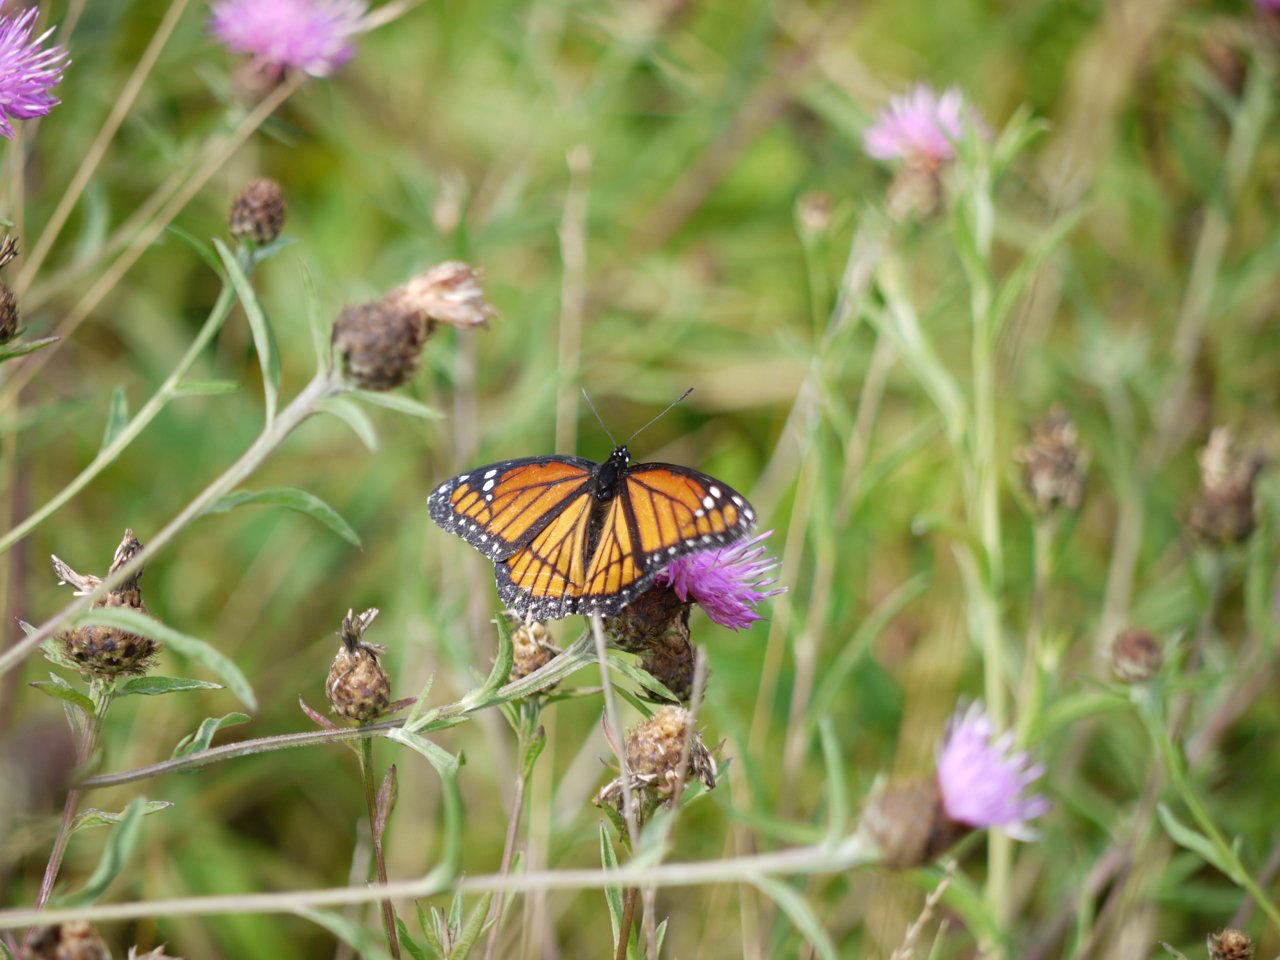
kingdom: Animalia
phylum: Arthropoda
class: Insecta
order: Lepidoptera
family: Nymphalidae
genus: Limenitis
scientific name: Limenitis archippus
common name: Viceroy
